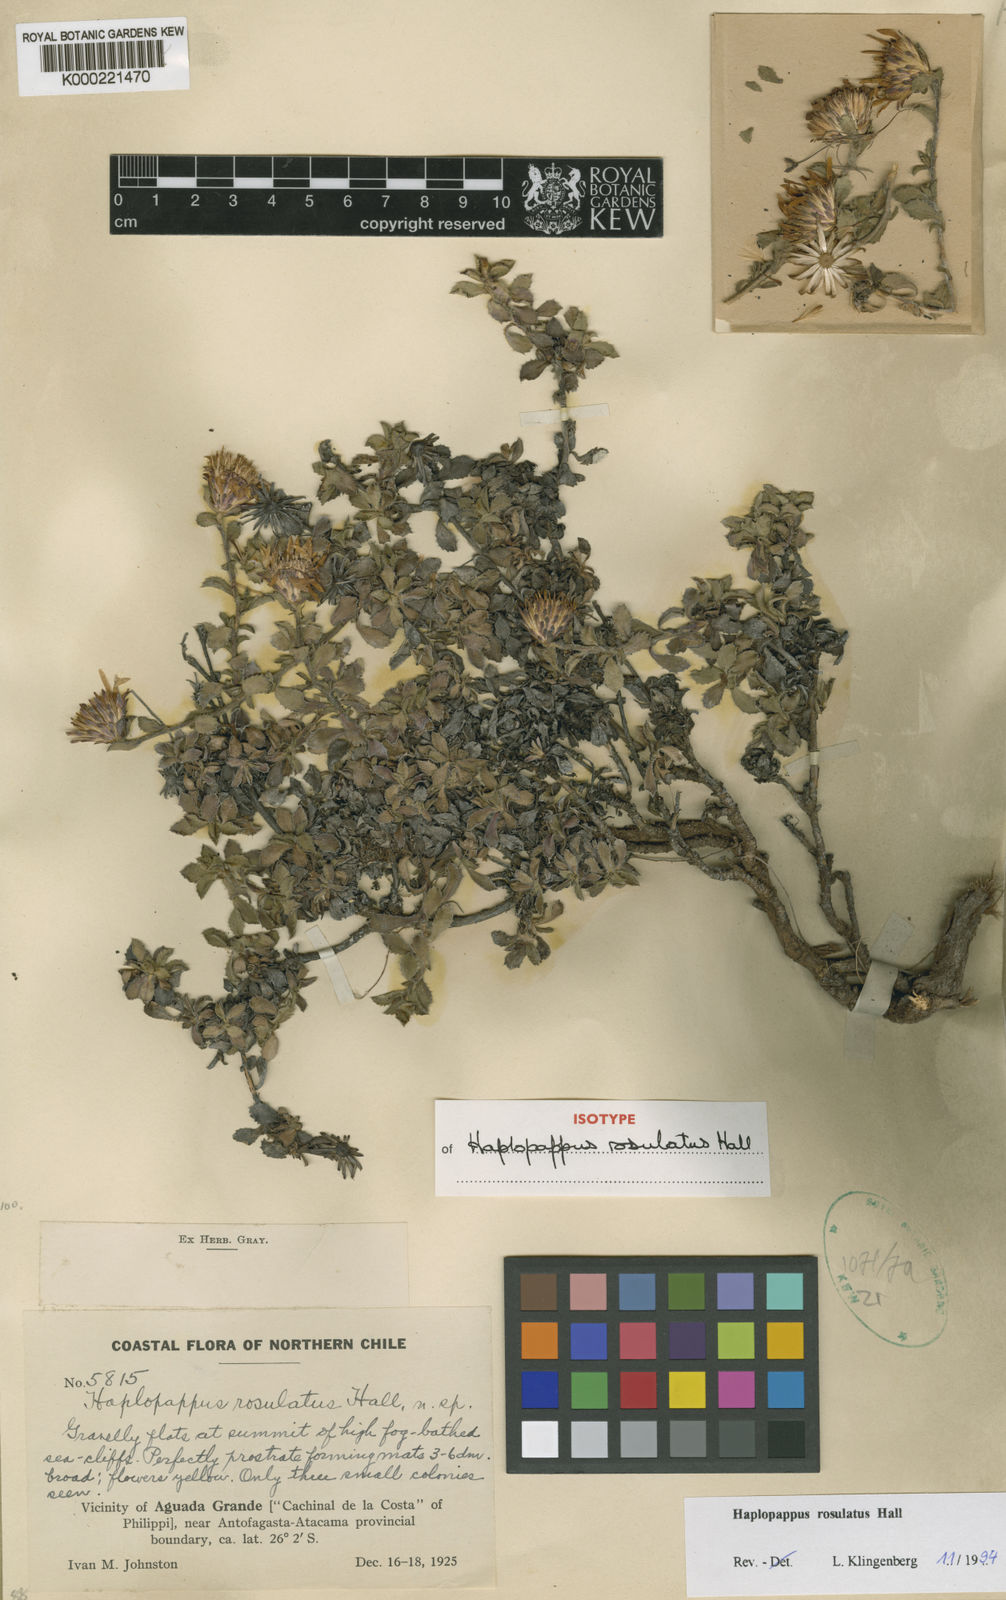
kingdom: Plantae
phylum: Tracheophyta
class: Magnoliopsida
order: Asterales
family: Asteraceae
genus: Haplopappus
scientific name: Haplopappus rosulatus
